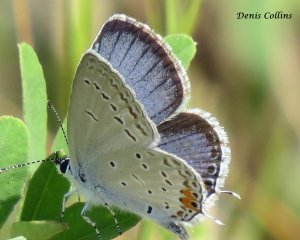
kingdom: Animalia
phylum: Arthropoda
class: Insecta
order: Lepidoptera
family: Lycaenidae
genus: Elkalyce
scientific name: Elkalyce comyntas
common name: Eastern Tailed-Blue
